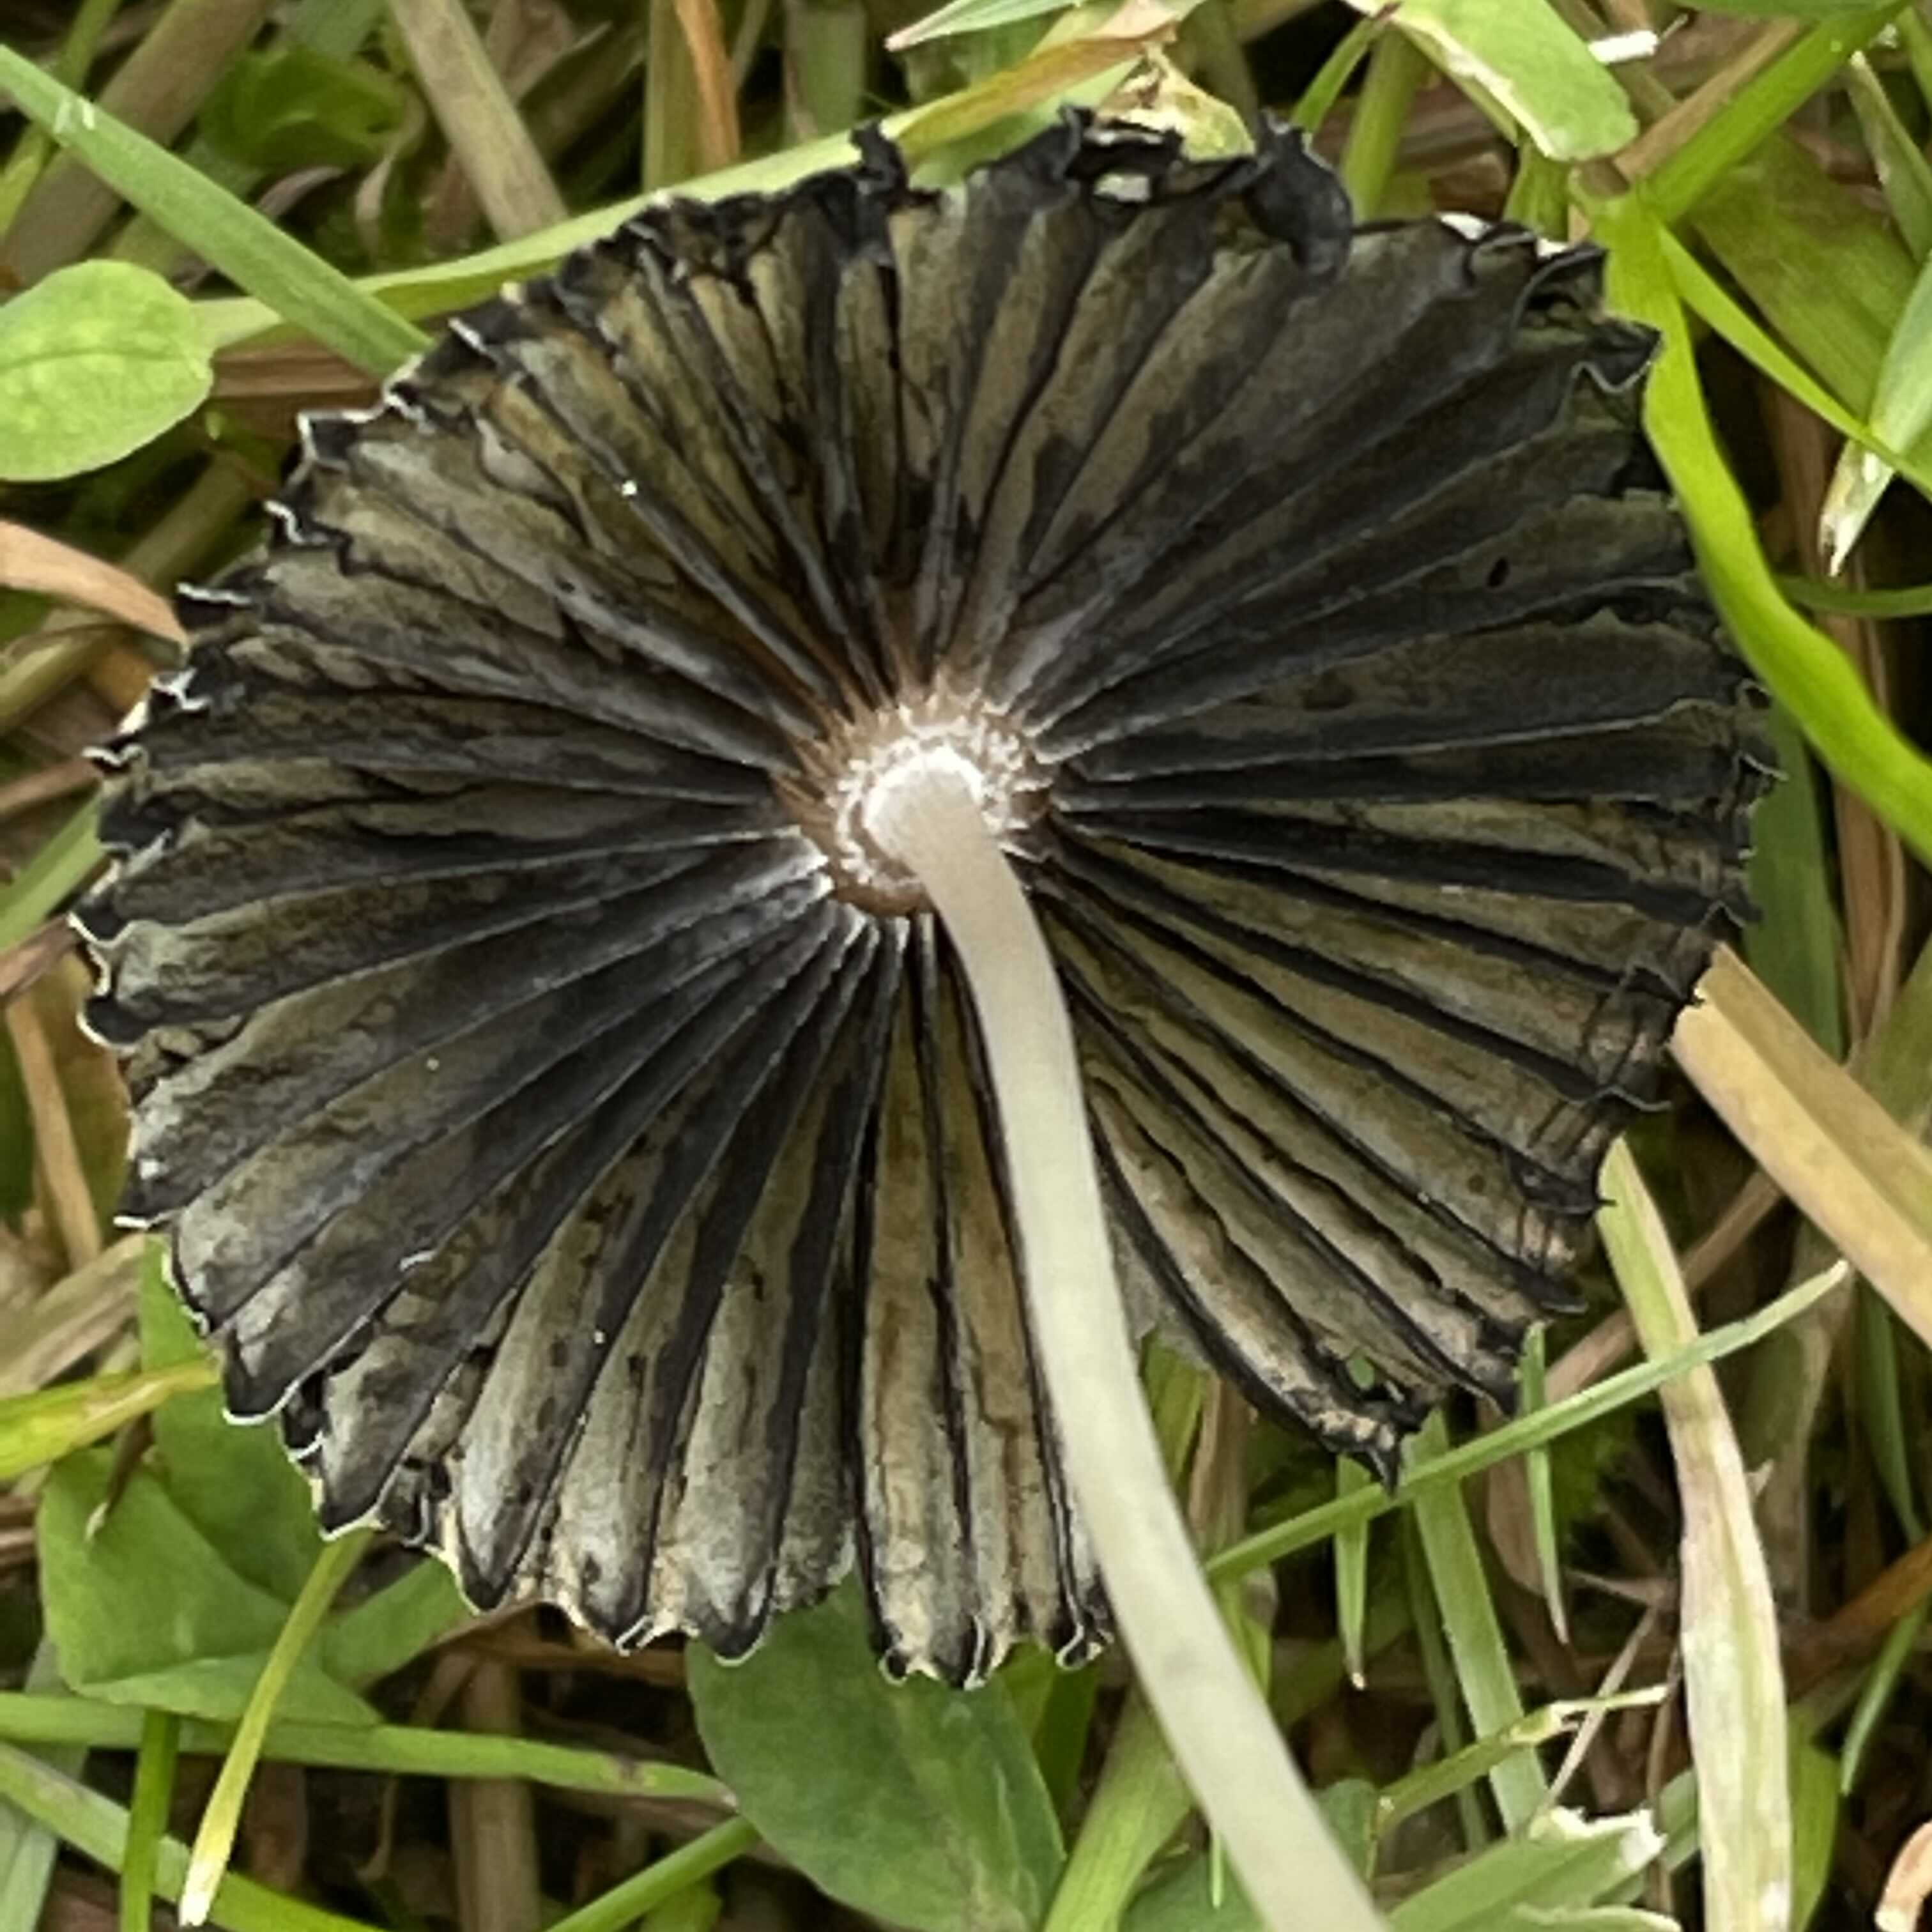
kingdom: Fungi
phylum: Basidiomycota
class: Agaricomycetes
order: Agaricales
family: Psathyrellaceae
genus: Parasola
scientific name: Parasola
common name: hjulhat
